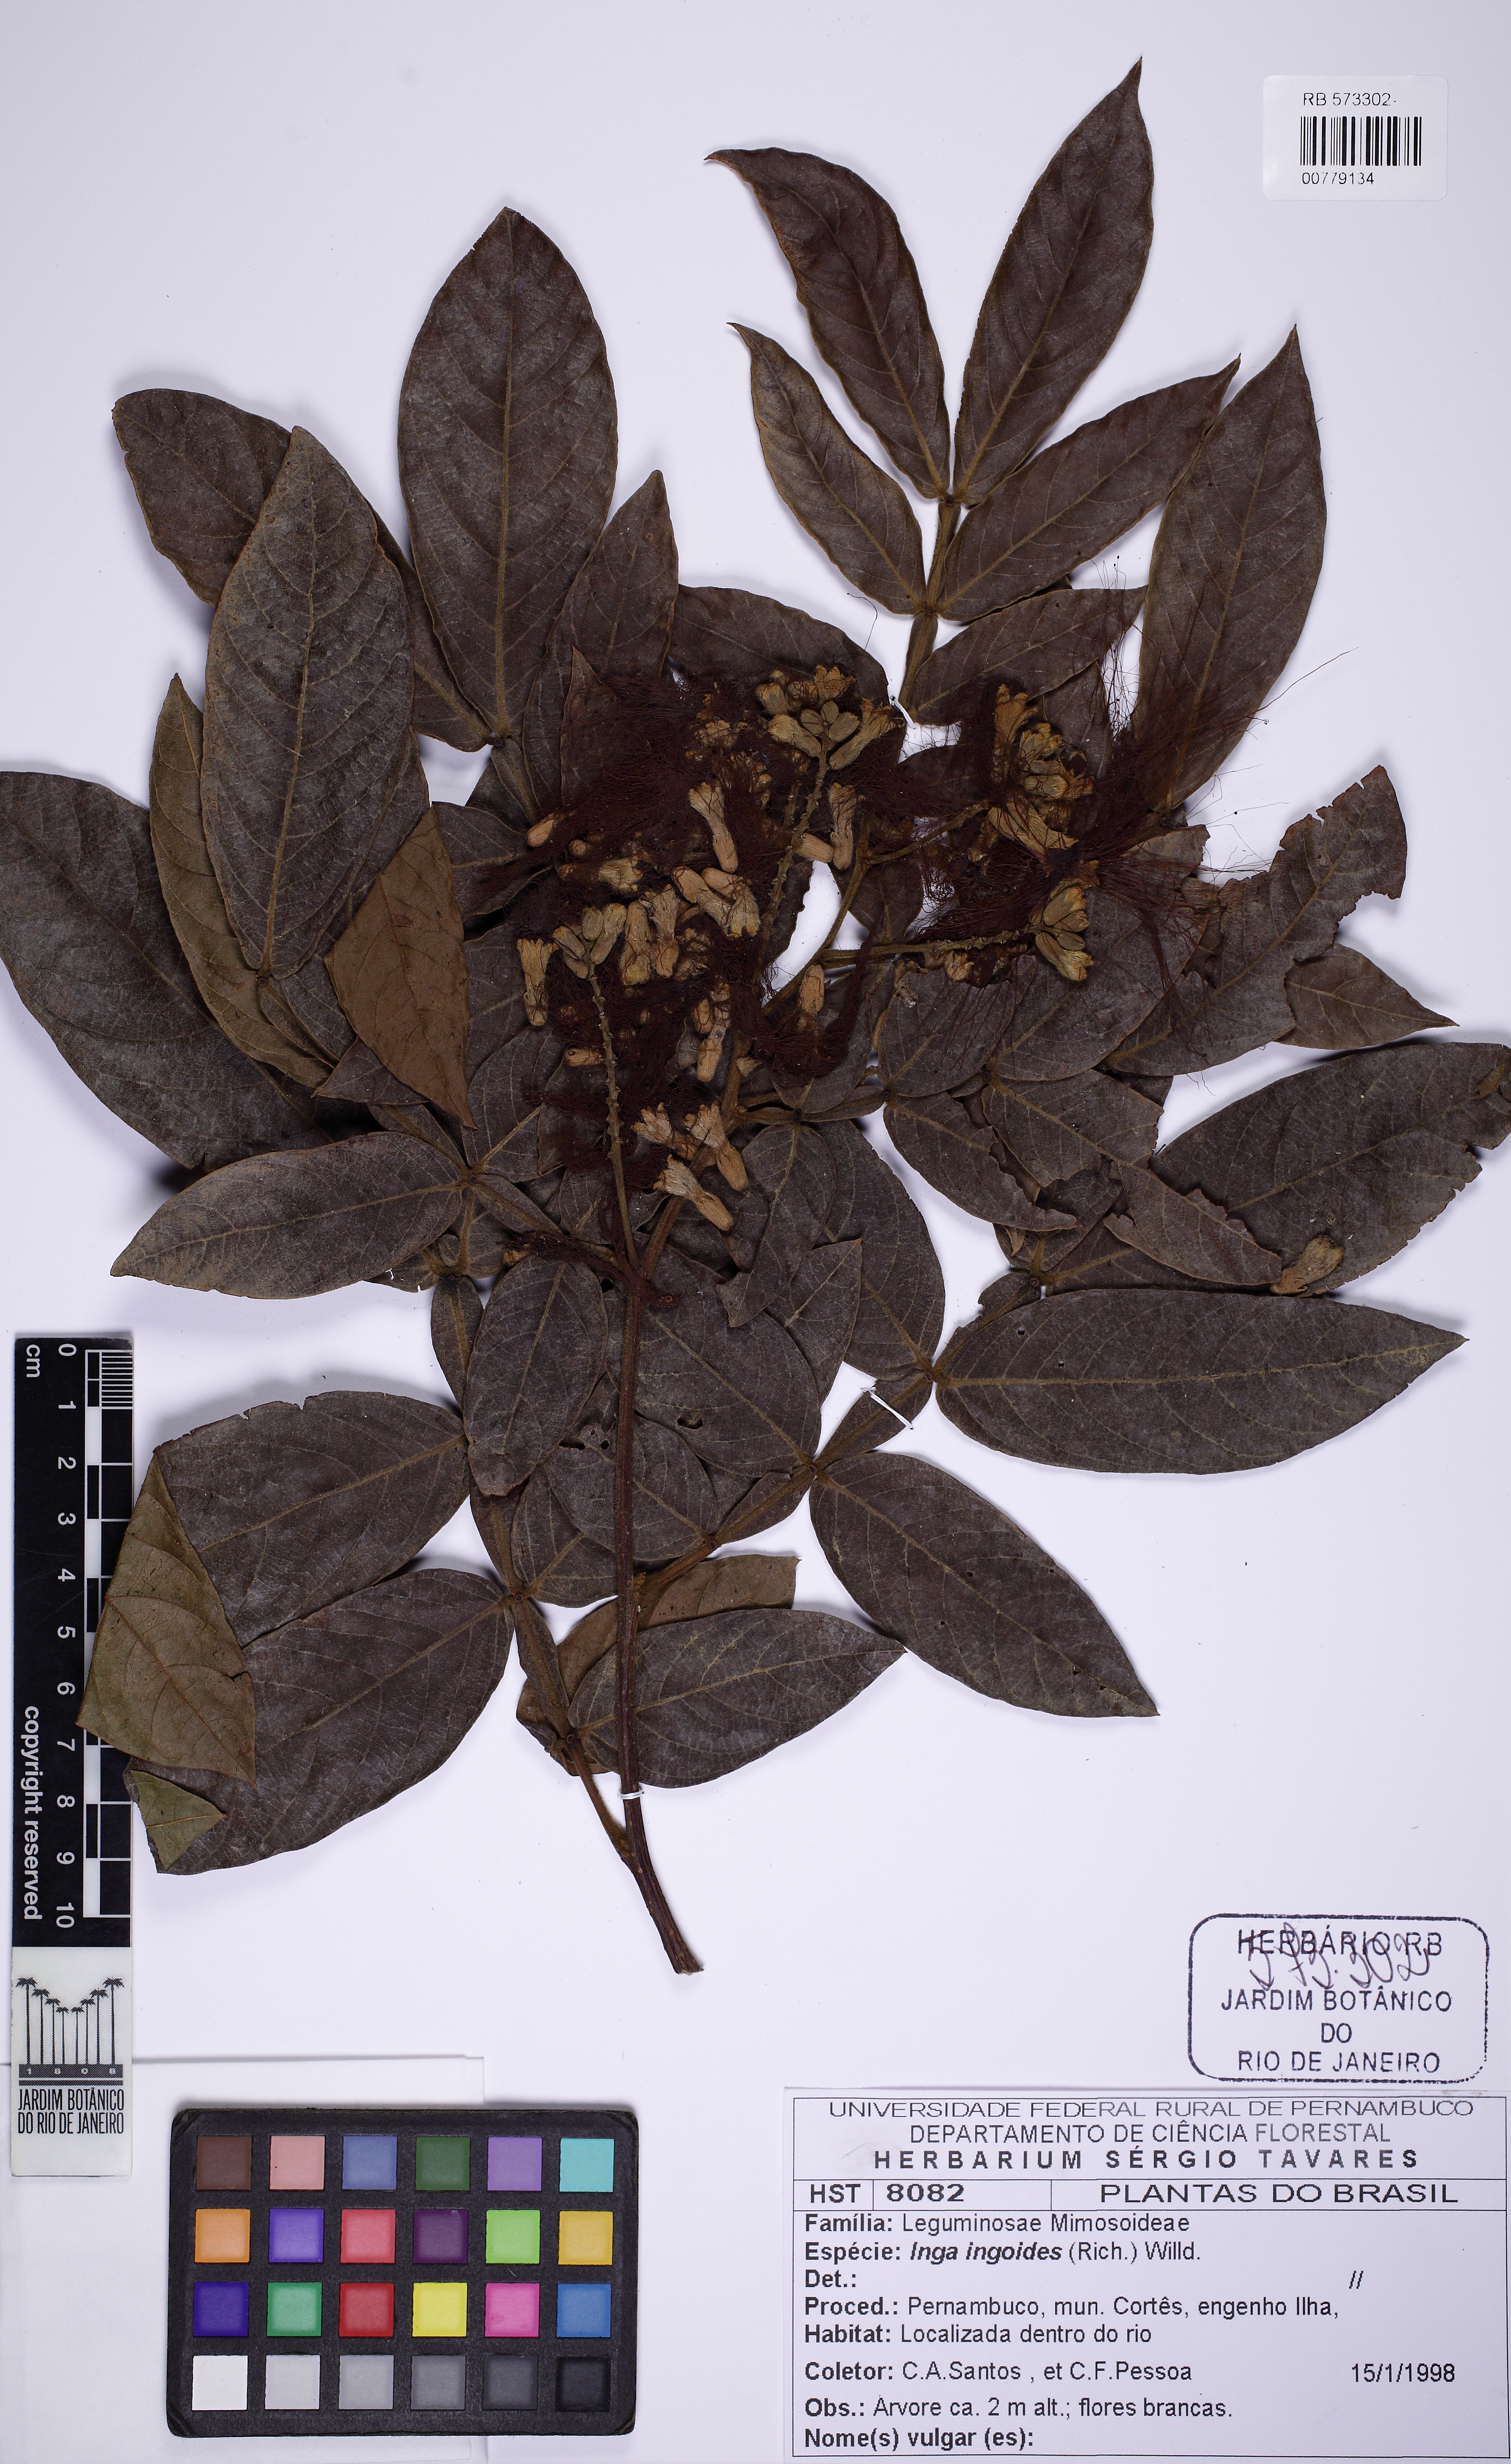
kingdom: Plantae
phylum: Tracheophyta
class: Magnoliopsida
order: Fabales
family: Fabaceae
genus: Inga
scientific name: Inga ingoides
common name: Spanish ash
